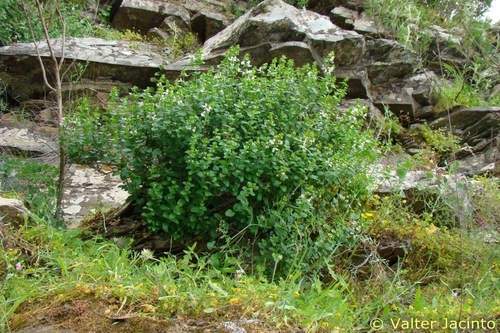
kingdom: Plantae
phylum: Tracheophyta
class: Magnoliopsida
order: Lamiales
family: Lamiaceae
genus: Prasium
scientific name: Prasium majus
